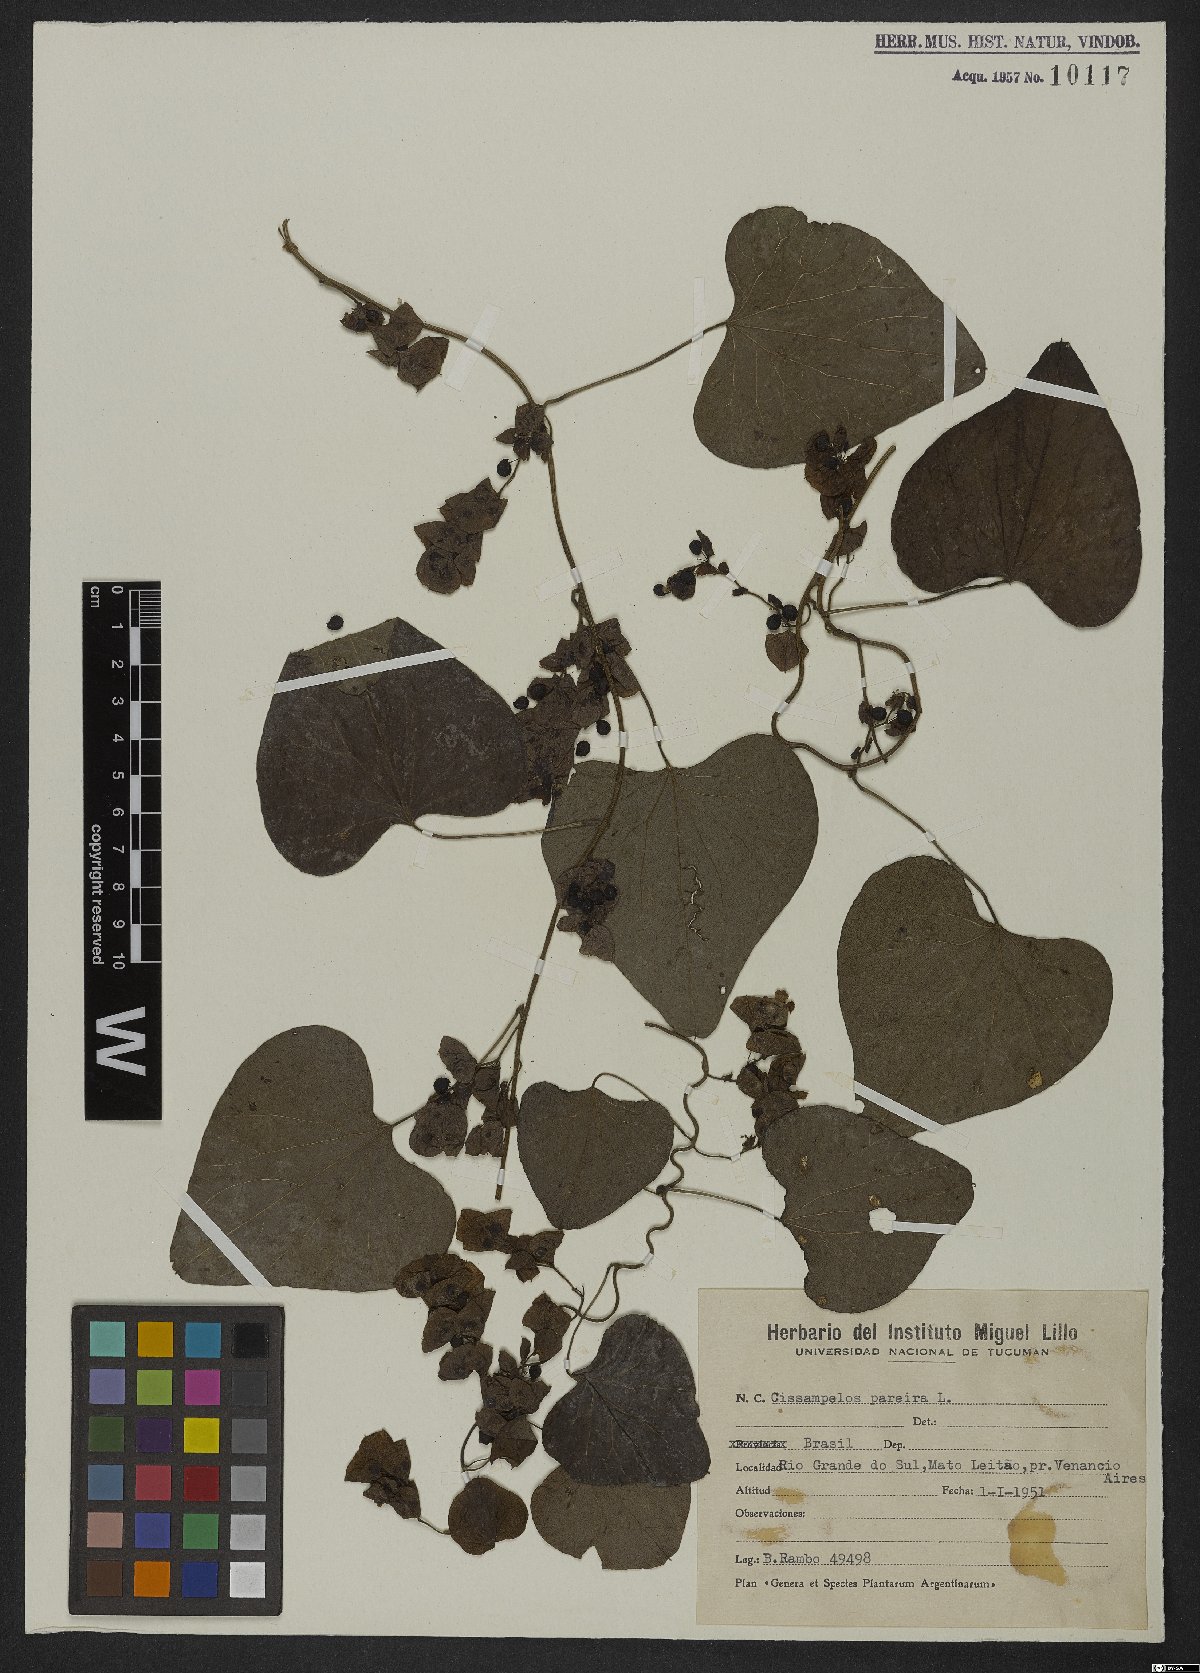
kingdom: Plantae
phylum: Tracheophyta
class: Magnoliopsida
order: Ranunculales
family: Menispermaceae
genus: Cissampelos
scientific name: Cissampelos pareira
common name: Velvetleaf
